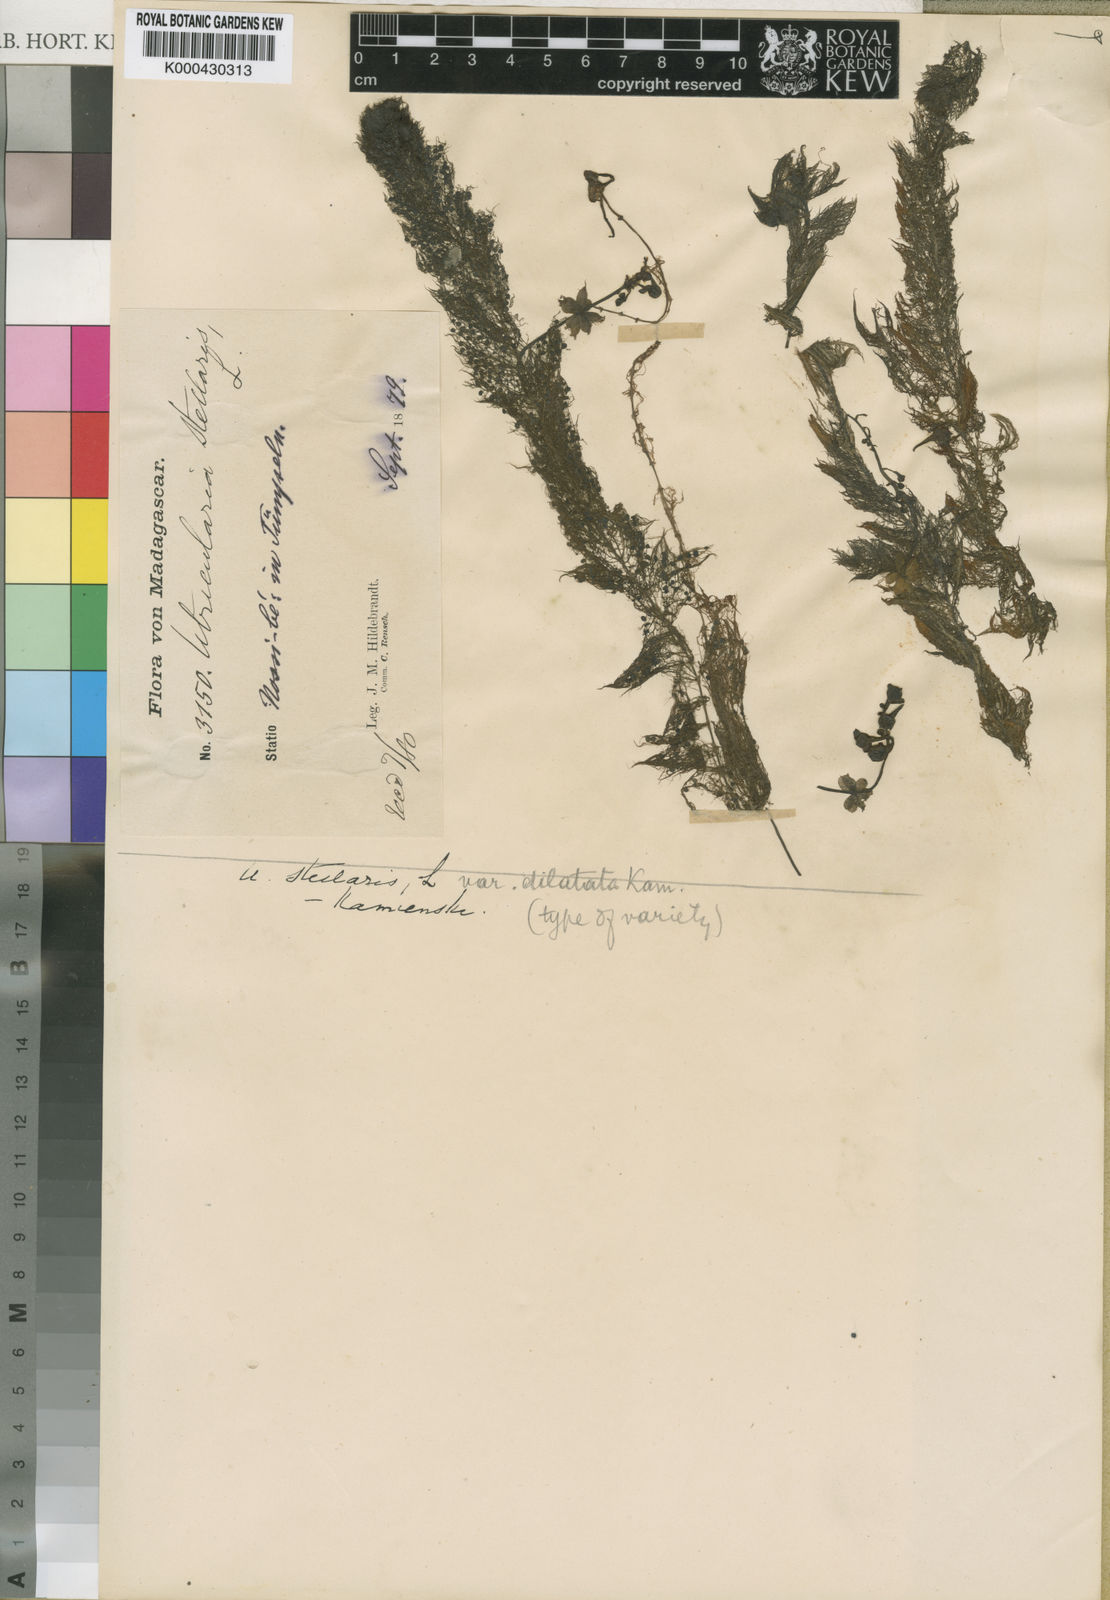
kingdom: Plantae
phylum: Tracheophyta
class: Magnoliopsida
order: Lamiales
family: Lentibulariaceae
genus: Utricularia
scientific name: Utricularia inflexa
